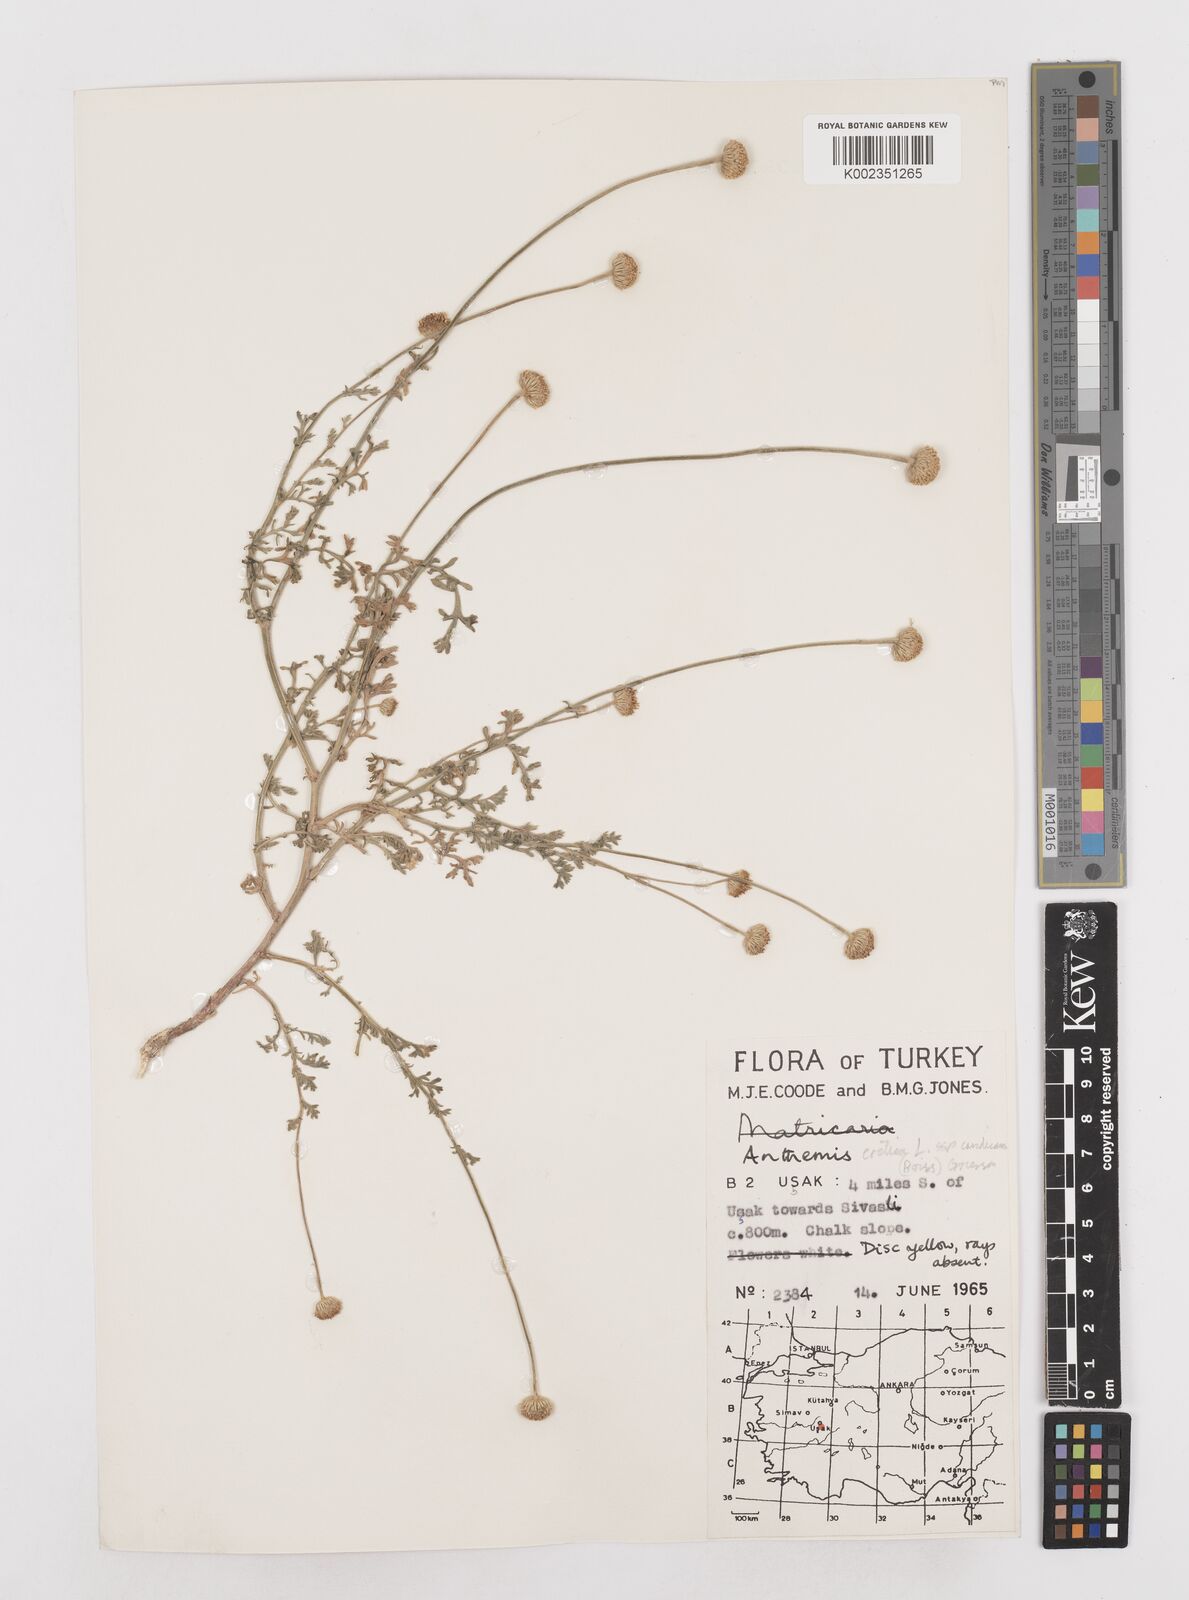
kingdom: Plantae
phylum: Tracheophyta
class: Magnoliopsida
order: Asterales
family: Asteraceae
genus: Anthemis
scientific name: Anthemis cretica
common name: Mountain dog-daisy
